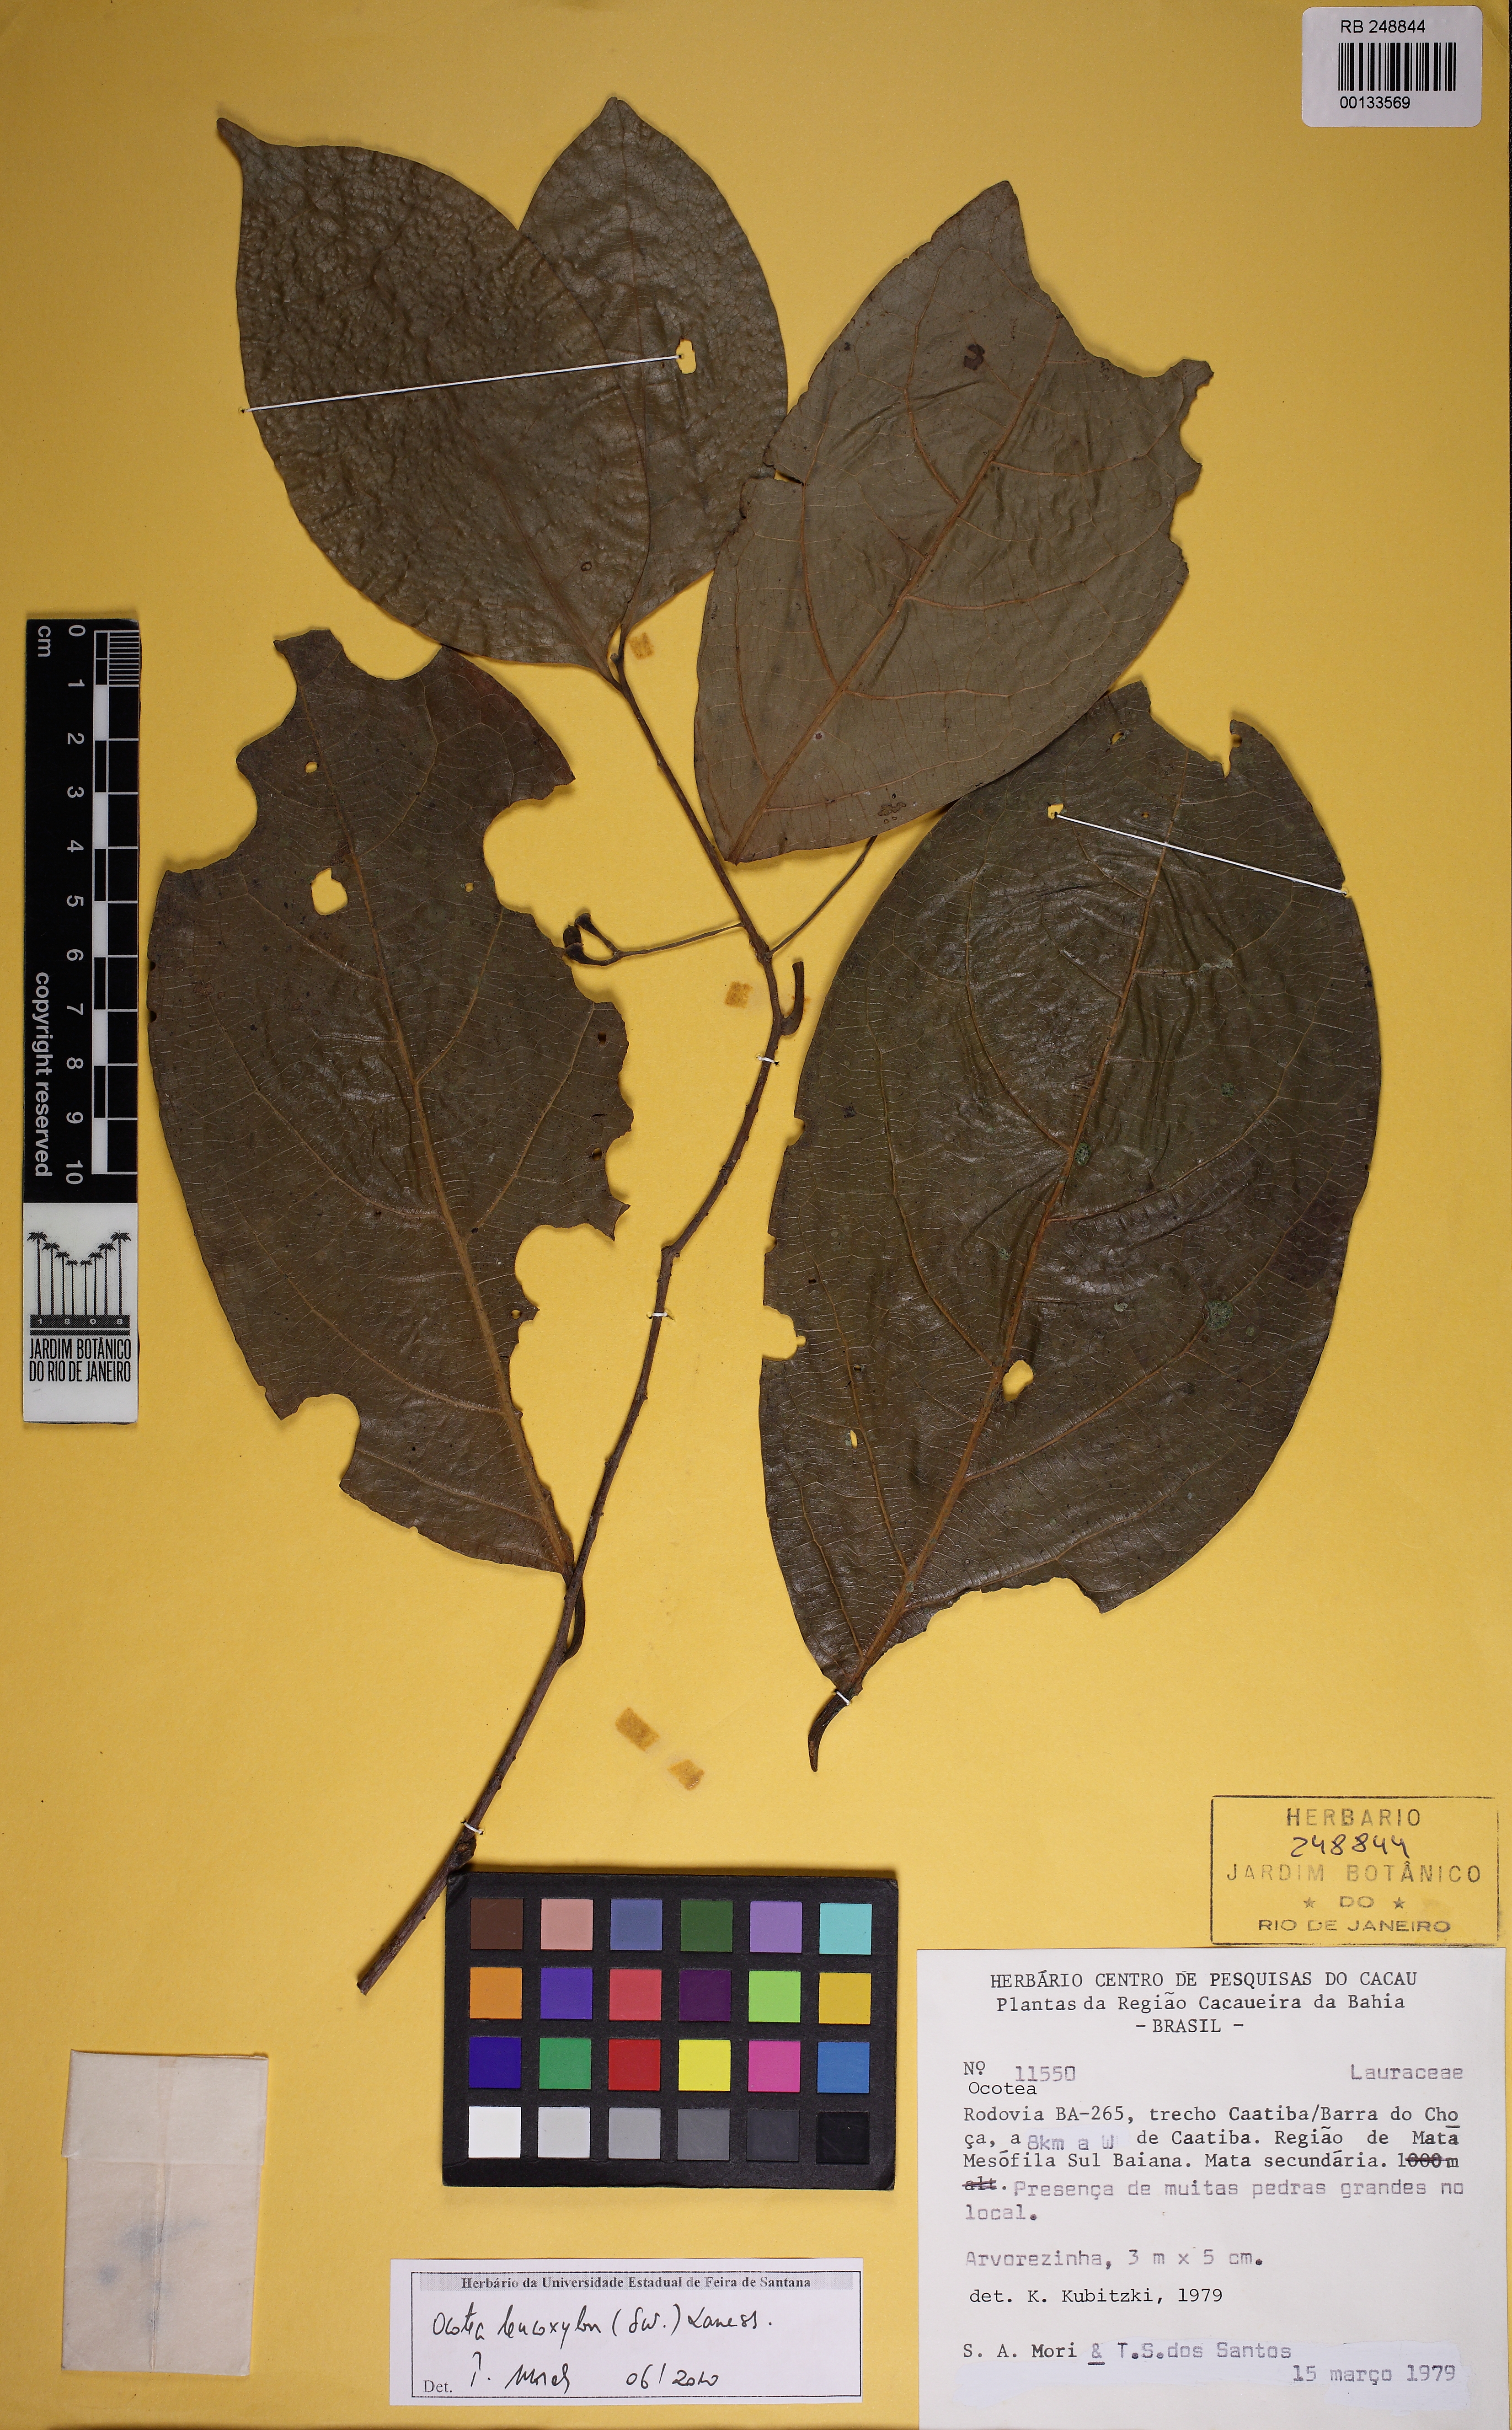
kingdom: Plantae
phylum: Tracheophyta
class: Magnoliopsida
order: Laurales
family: Lauraceae
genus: Ocotea
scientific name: Ocotea leucoxylon
